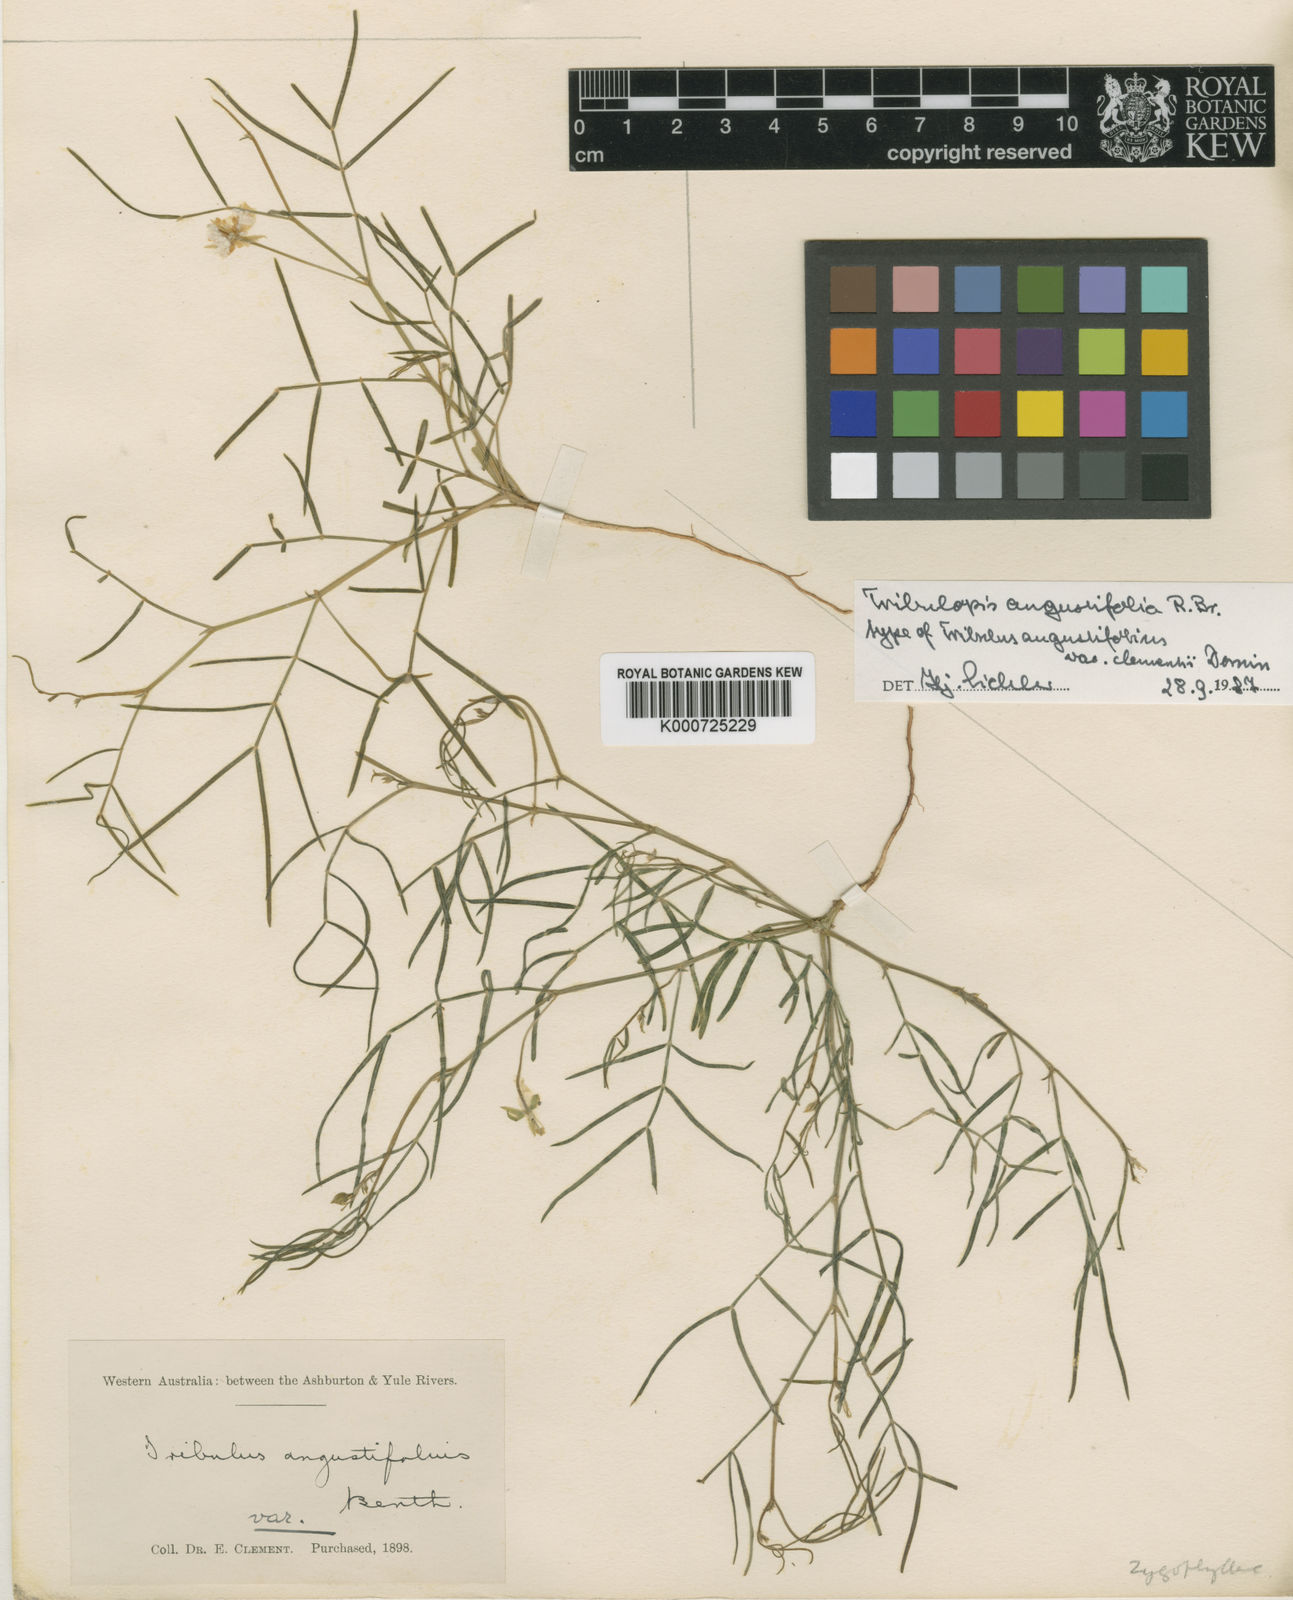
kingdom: Plantae
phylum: Tracheophyta
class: Magnoliopsida
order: Zygophyllales
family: Zygophyllaceae
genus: Tribulopis
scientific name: Tribulopis angustifolia
